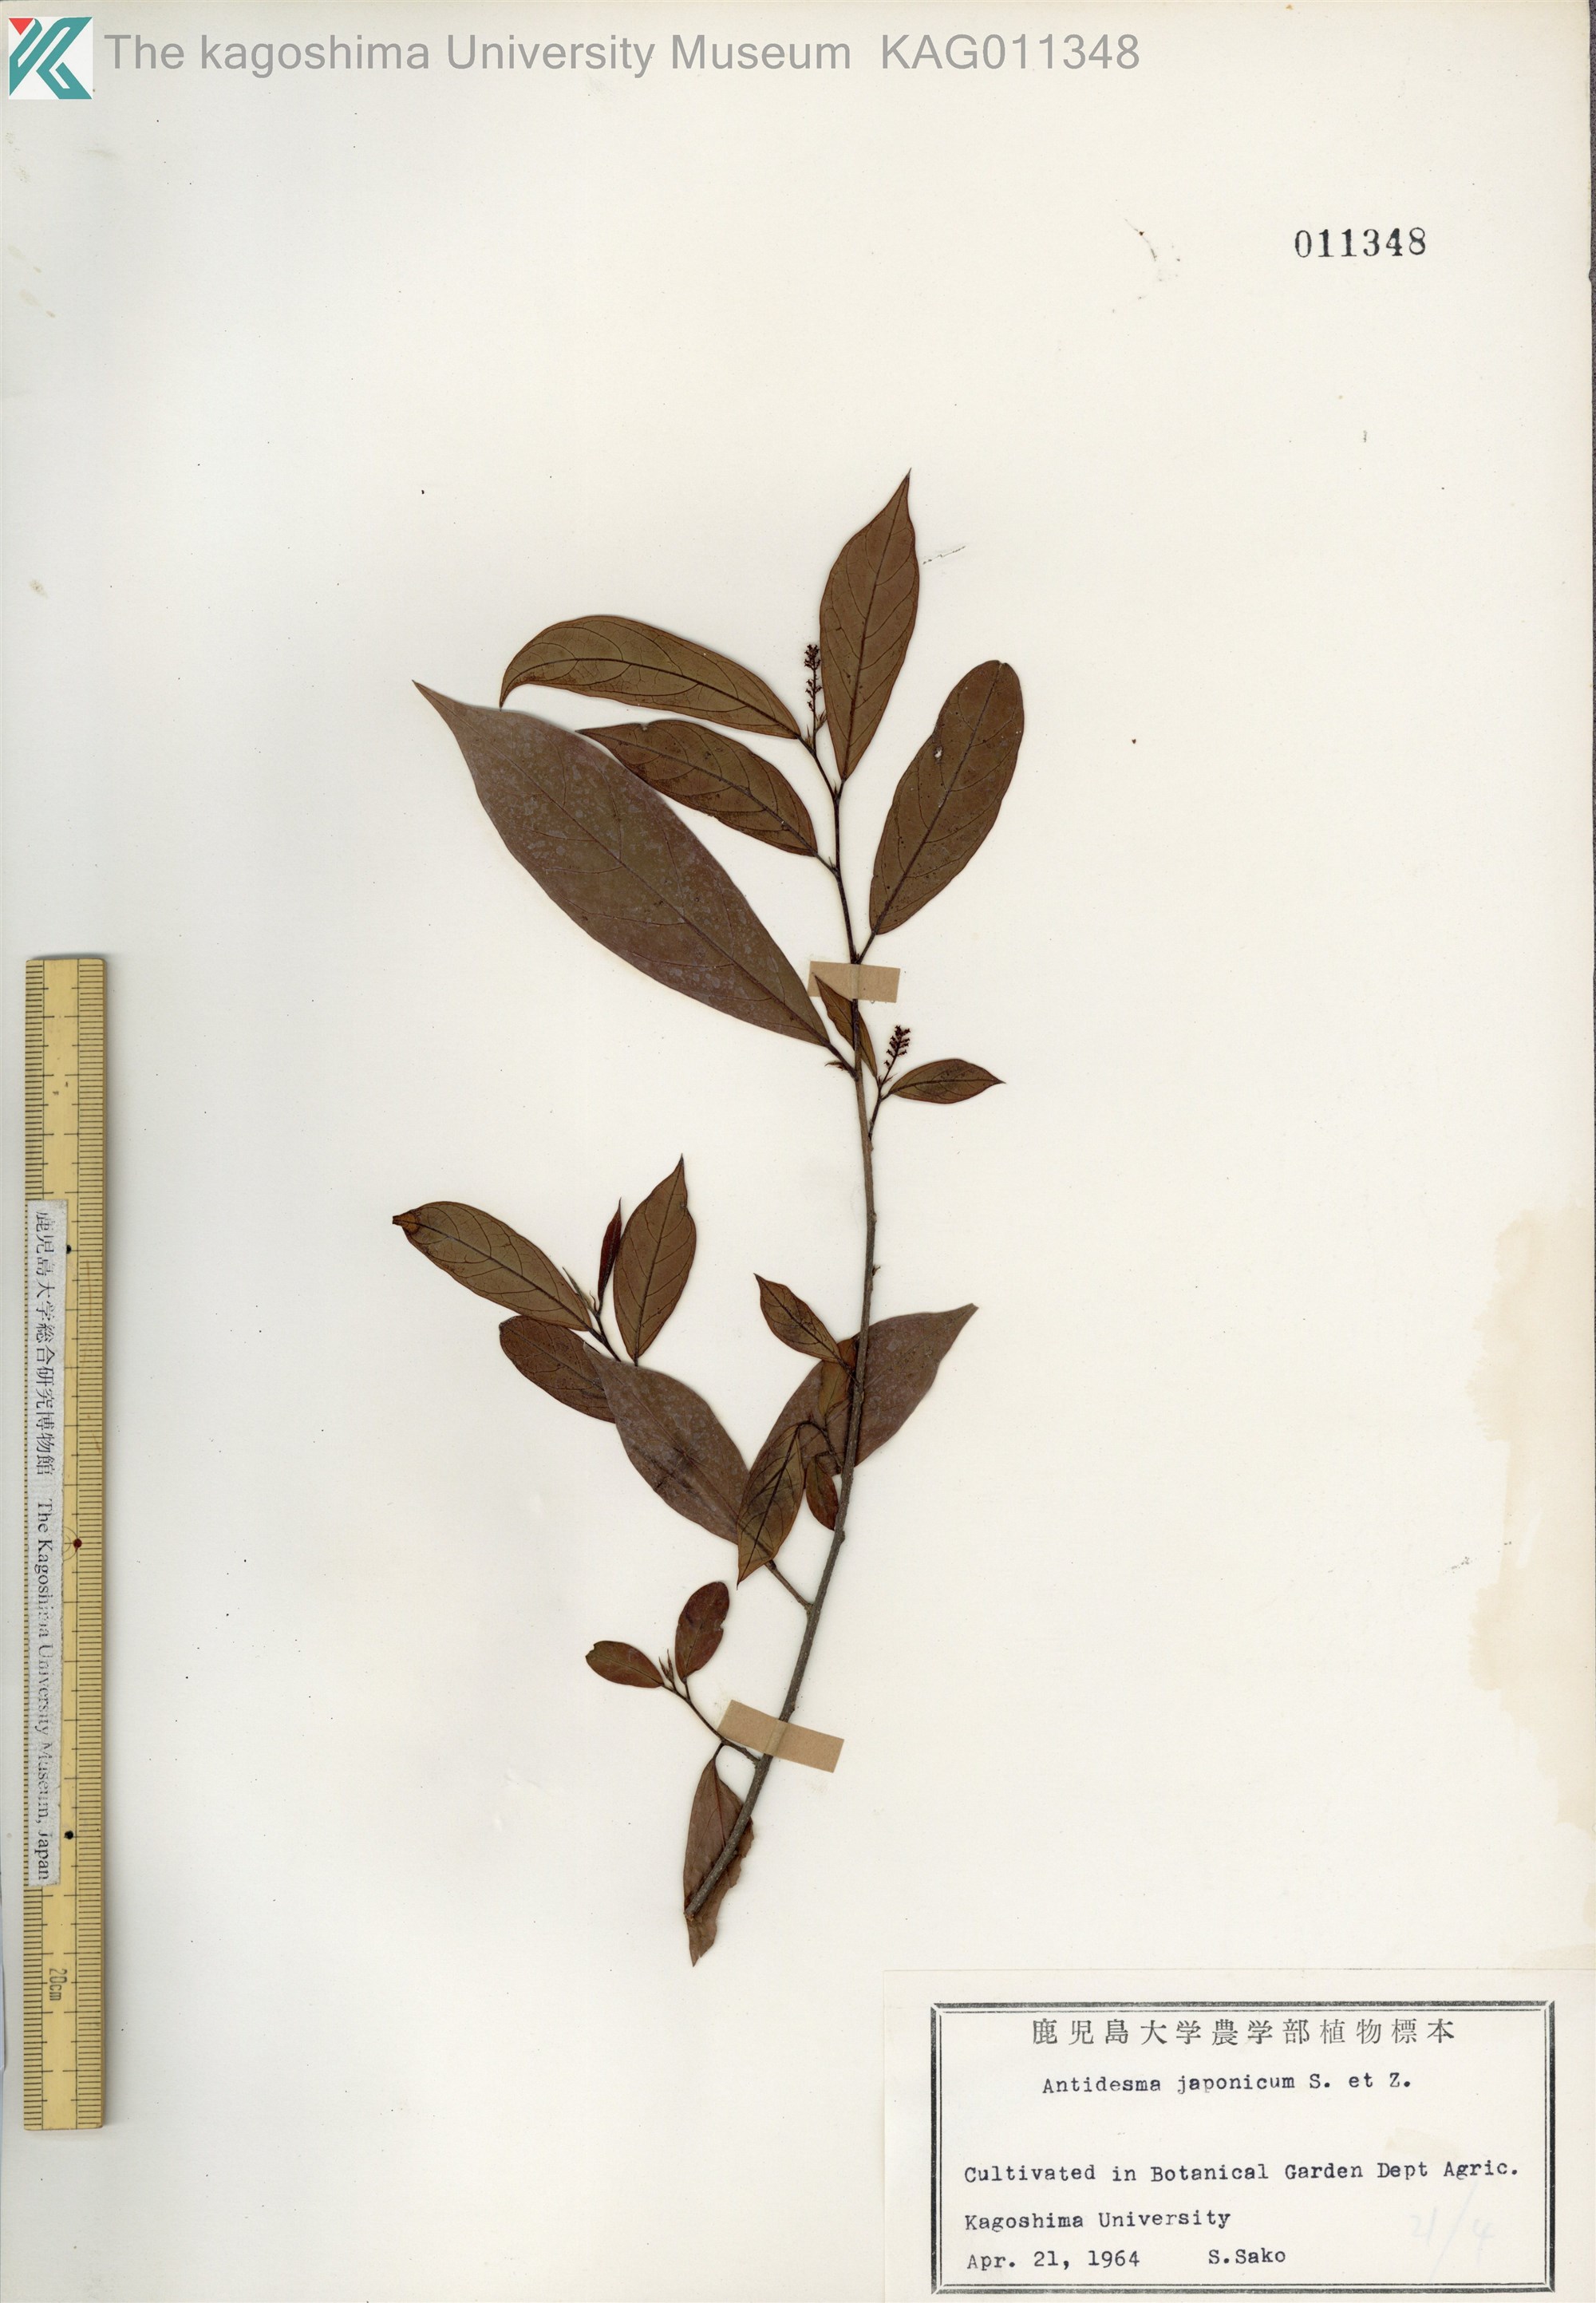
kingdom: Plantae
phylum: Tracheophyta
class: Magnoliopsida
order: Malpighiales
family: Phyllanthaceae
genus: Antidesma
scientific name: Antidesma japonicum
